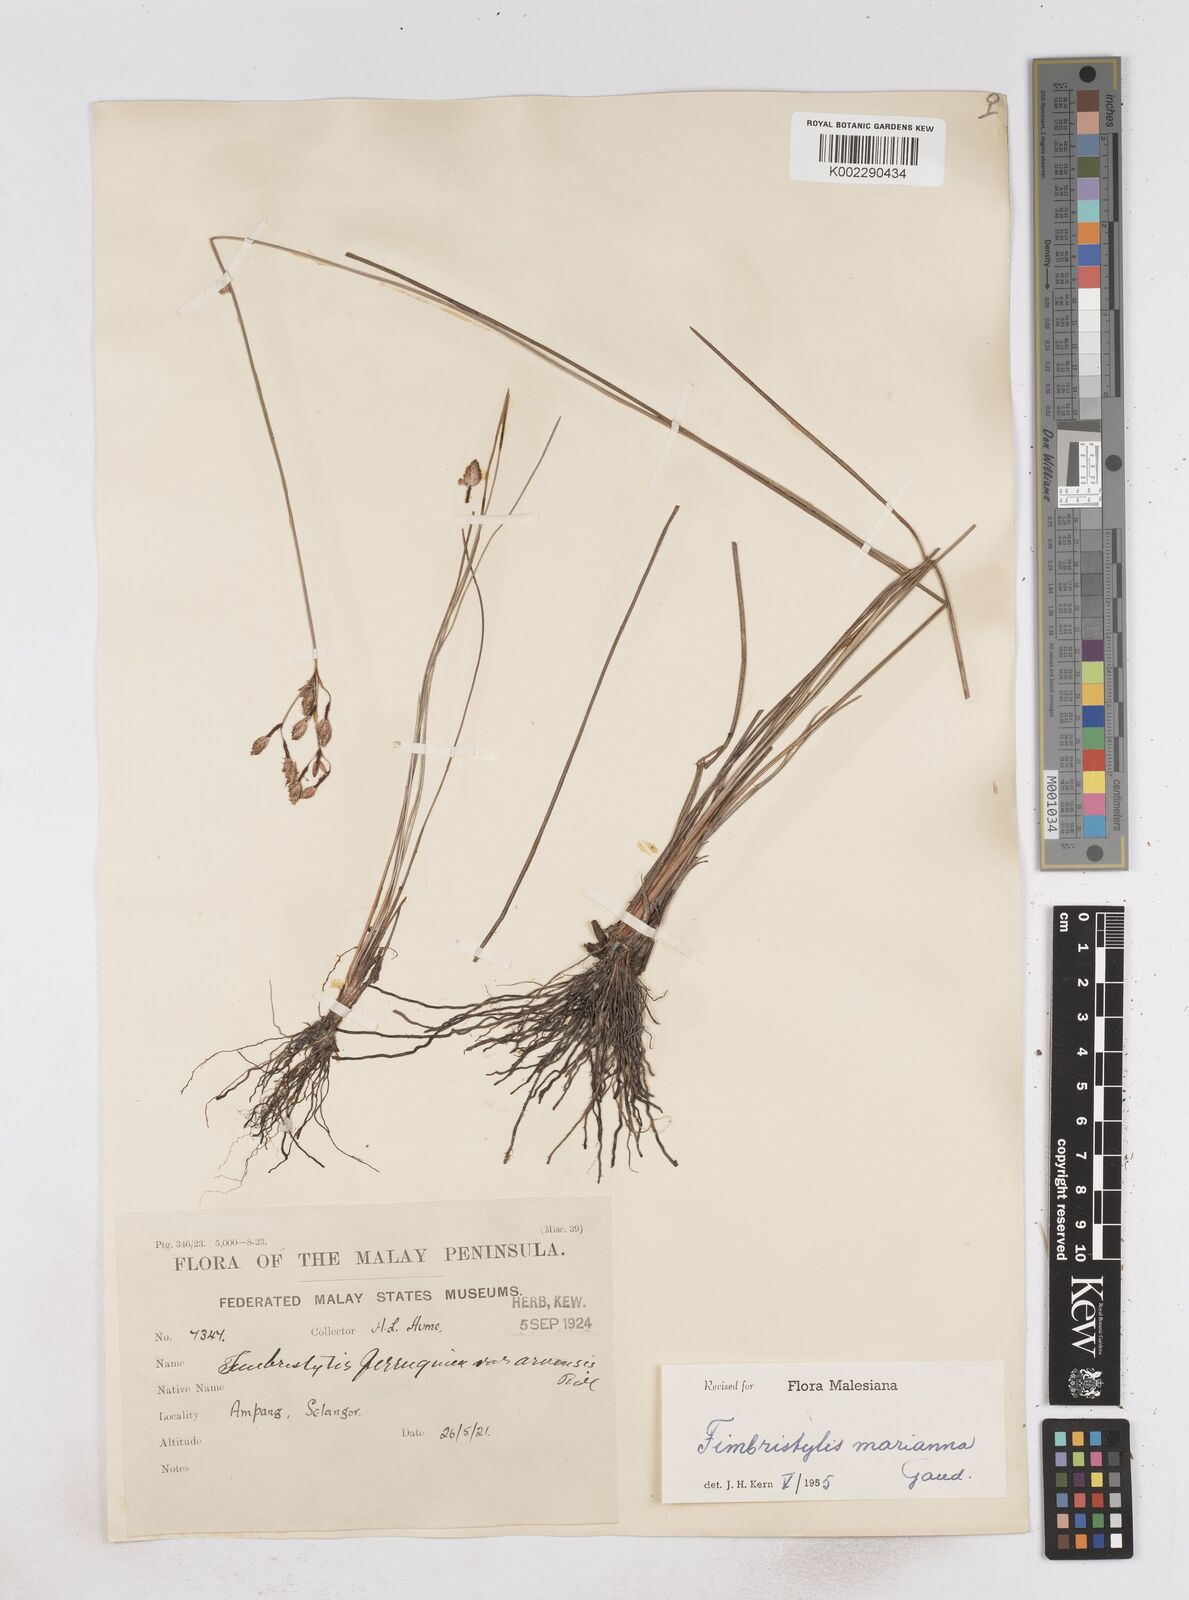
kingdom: Plantae
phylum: Tracheophyta
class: Liliopsida
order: Poales
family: Cyperaceae
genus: Fimbristylis
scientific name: Fimbristylis tristachya
